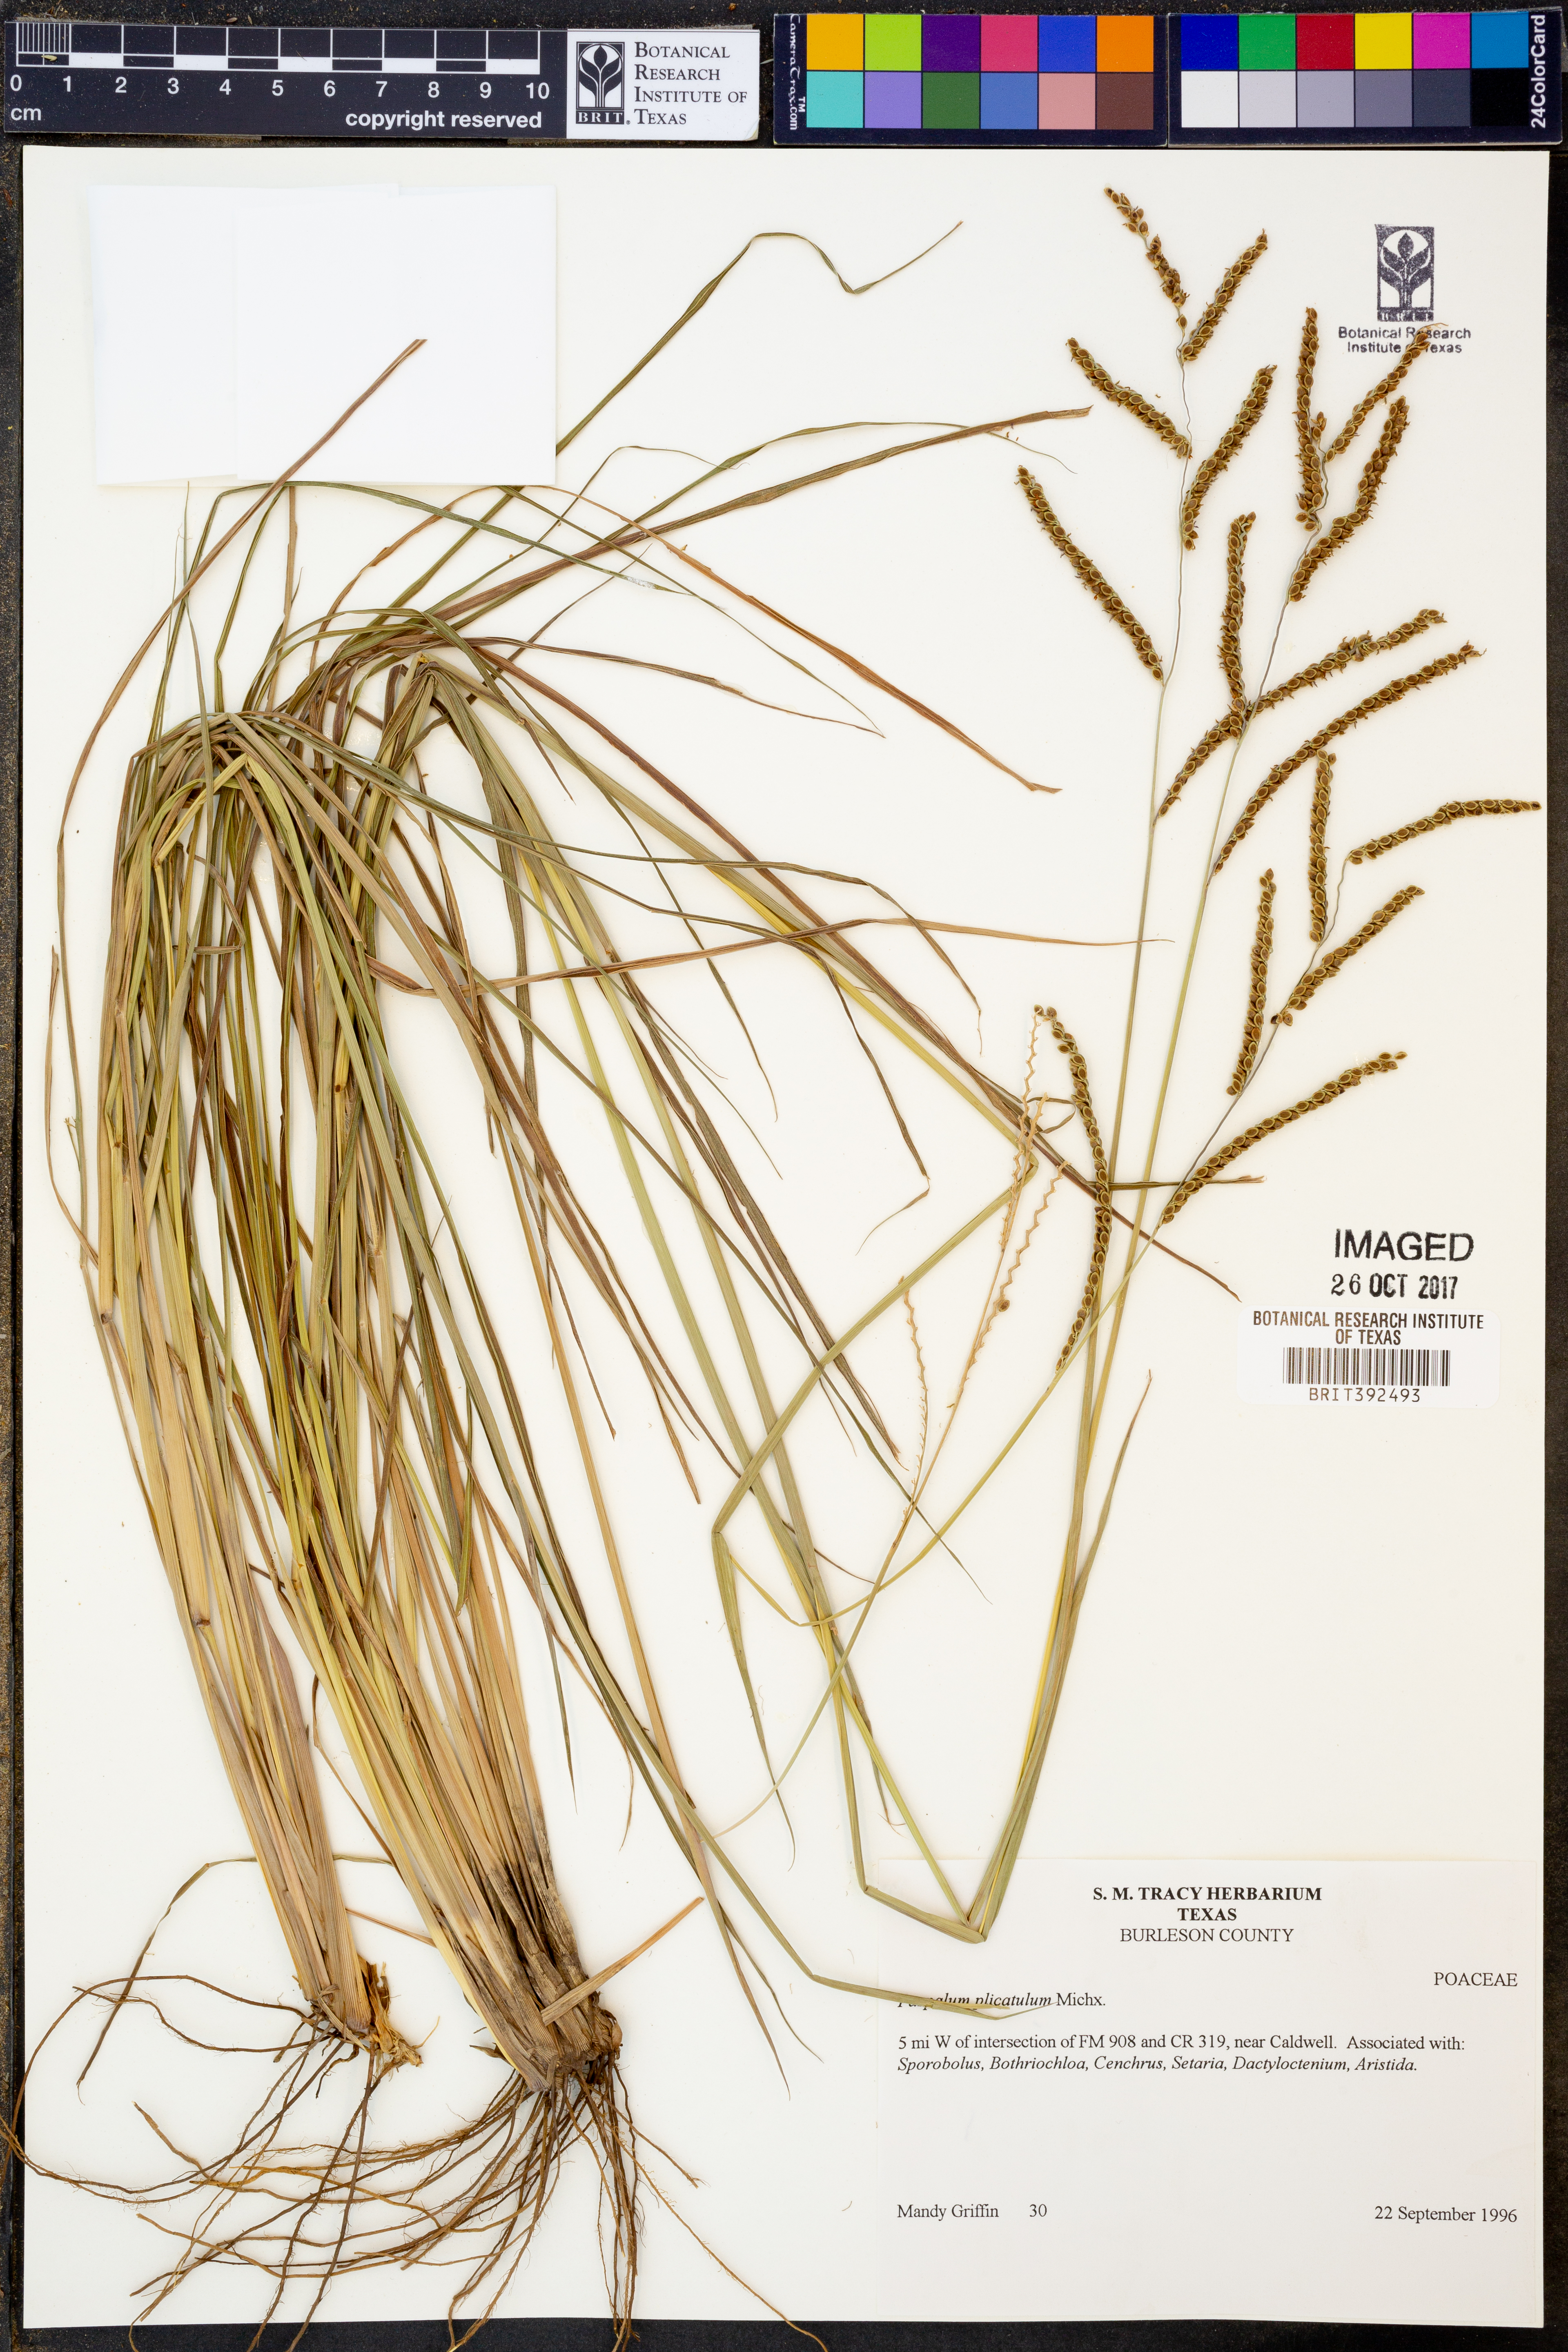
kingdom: Plantae
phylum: Tracheophyta
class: Liliopsida
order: Poales
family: Poaceae
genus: Paspalum
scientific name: Paspalum plicatulum
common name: Top paspalum
